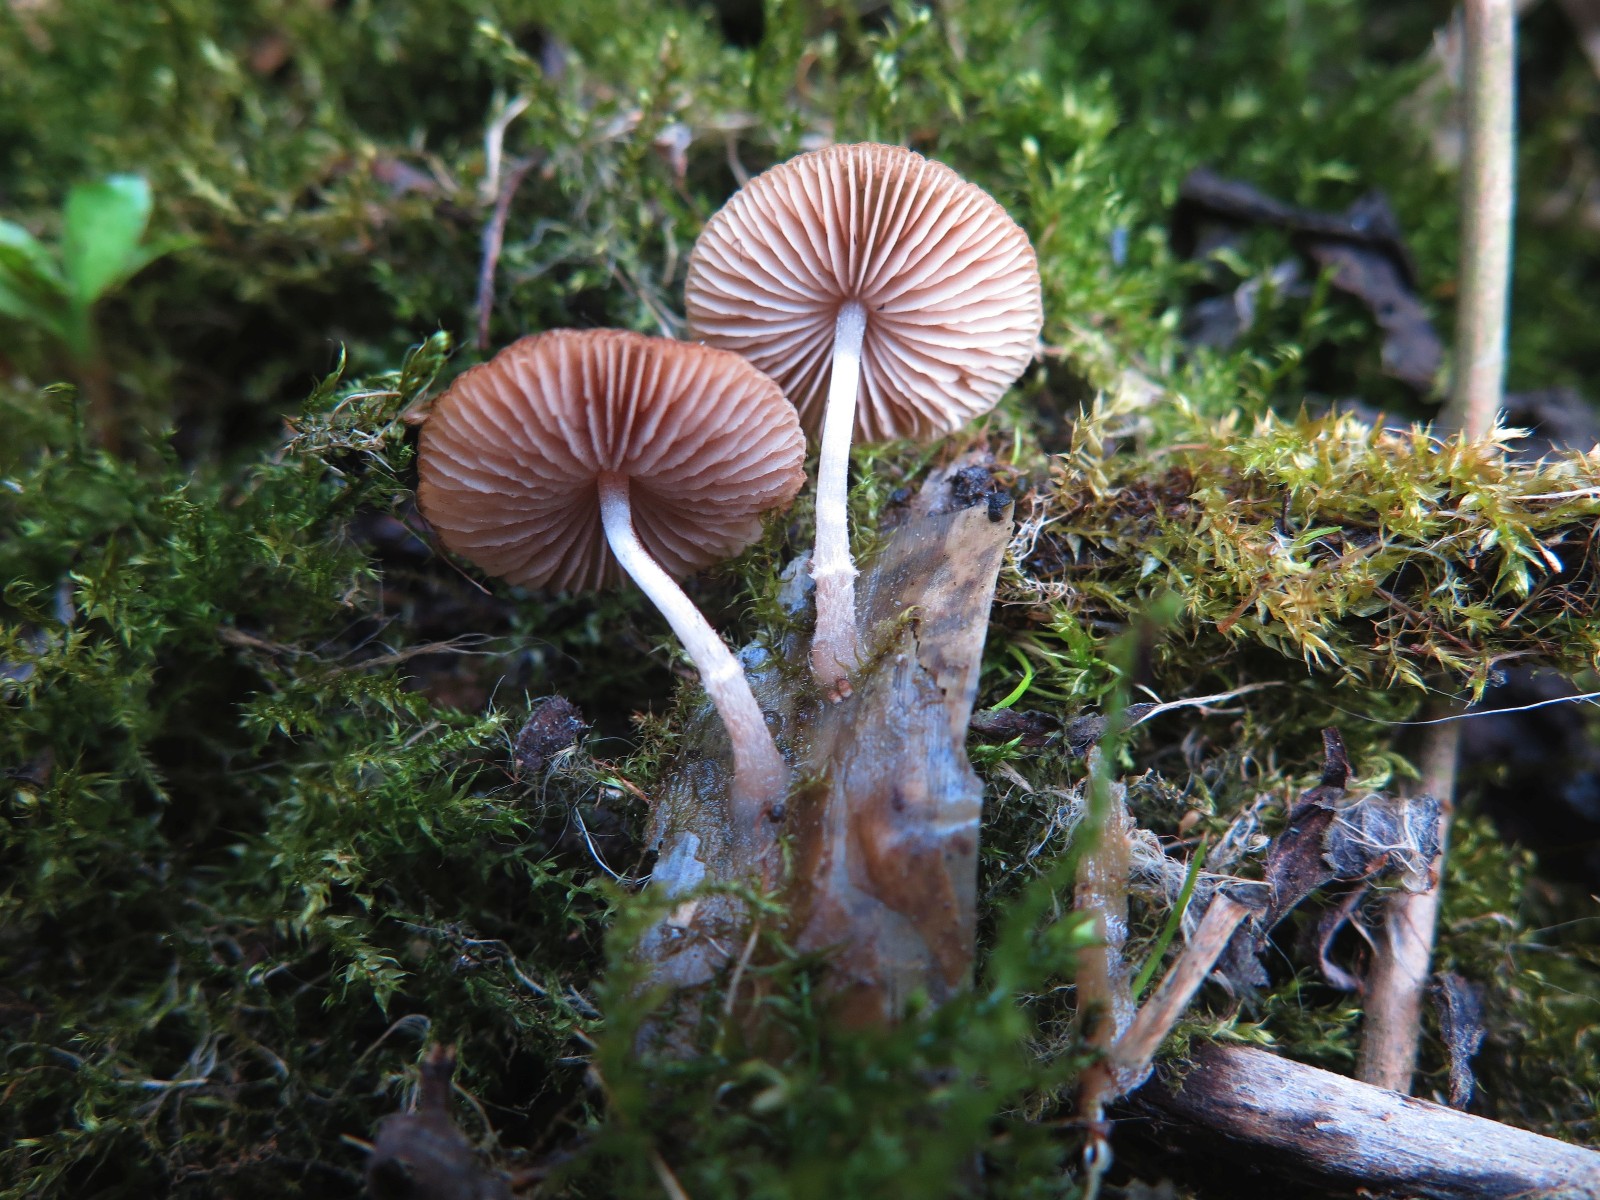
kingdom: Fungi
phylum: Basidiomycota
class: Agaricomycetes
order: Agaricales
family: Psathyrellaceae
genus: Candolleomyces
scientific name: Candolleomyces typhae
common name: dunhammer-mørkhat
